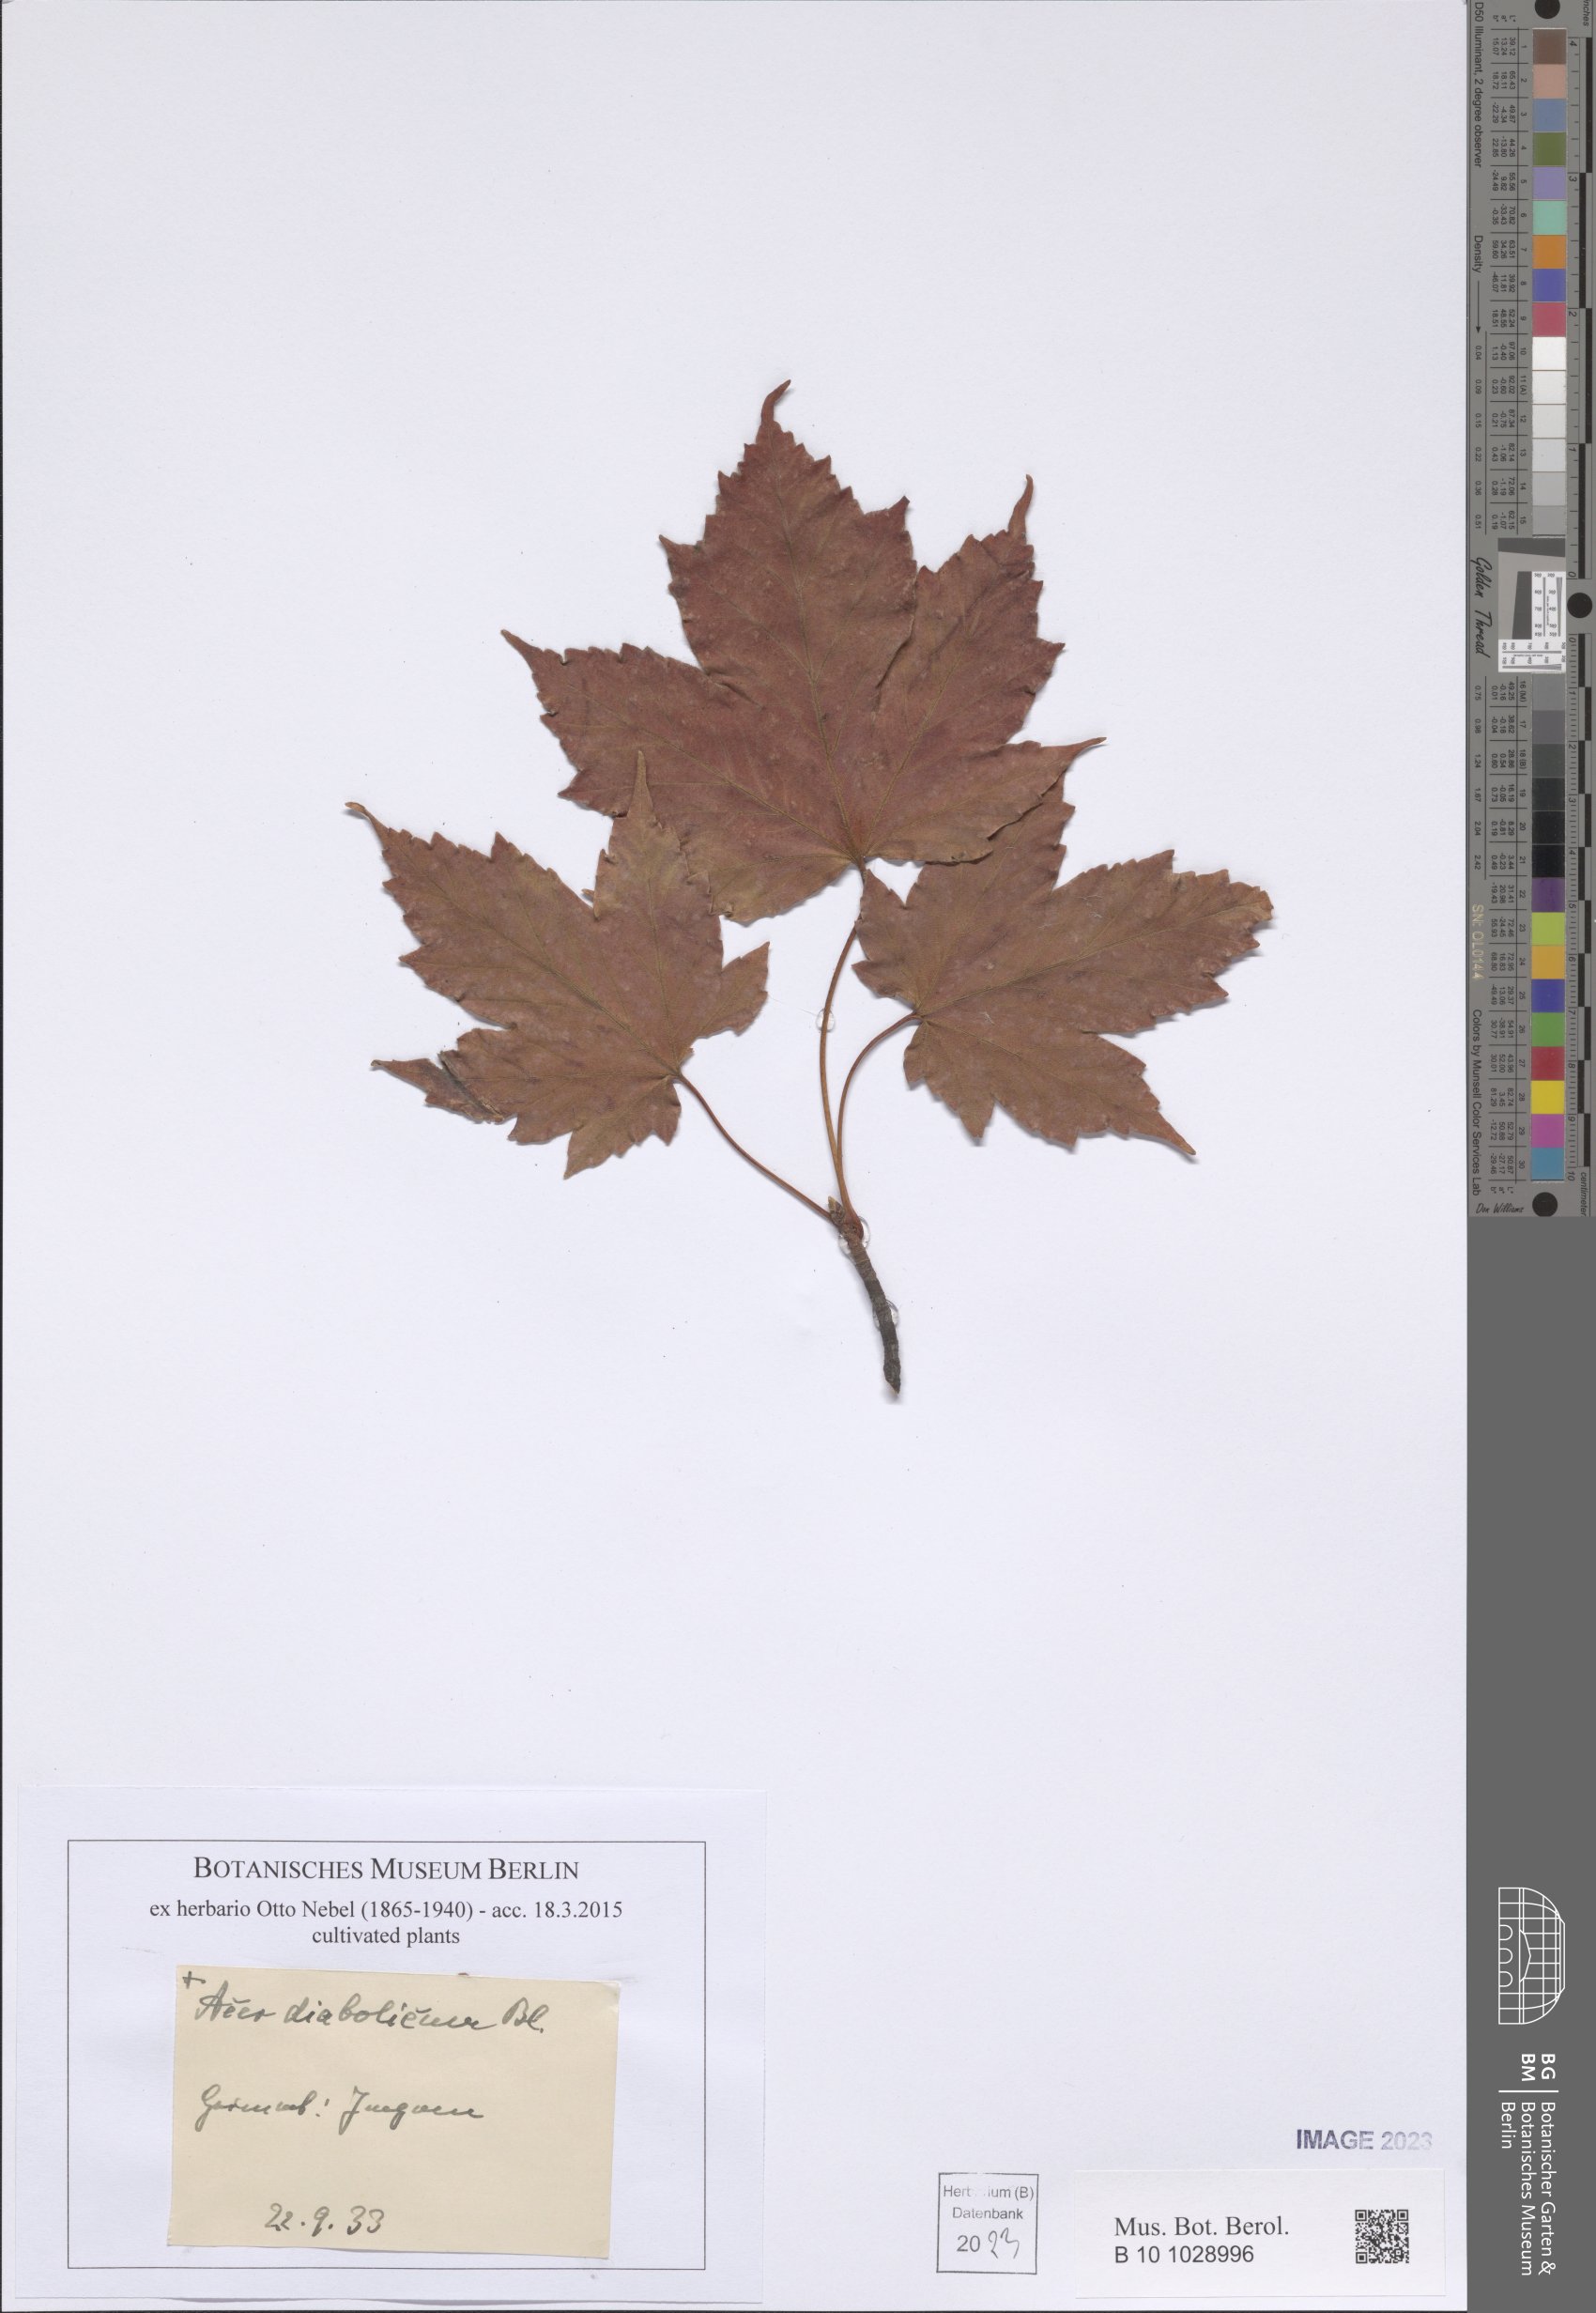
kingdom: Plantae
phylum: Tracheophyta
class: Magnoliopsida
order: Sapindales
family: Sapindaceae
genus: Acer
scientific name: Acer diabolicum
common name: Devil maple
